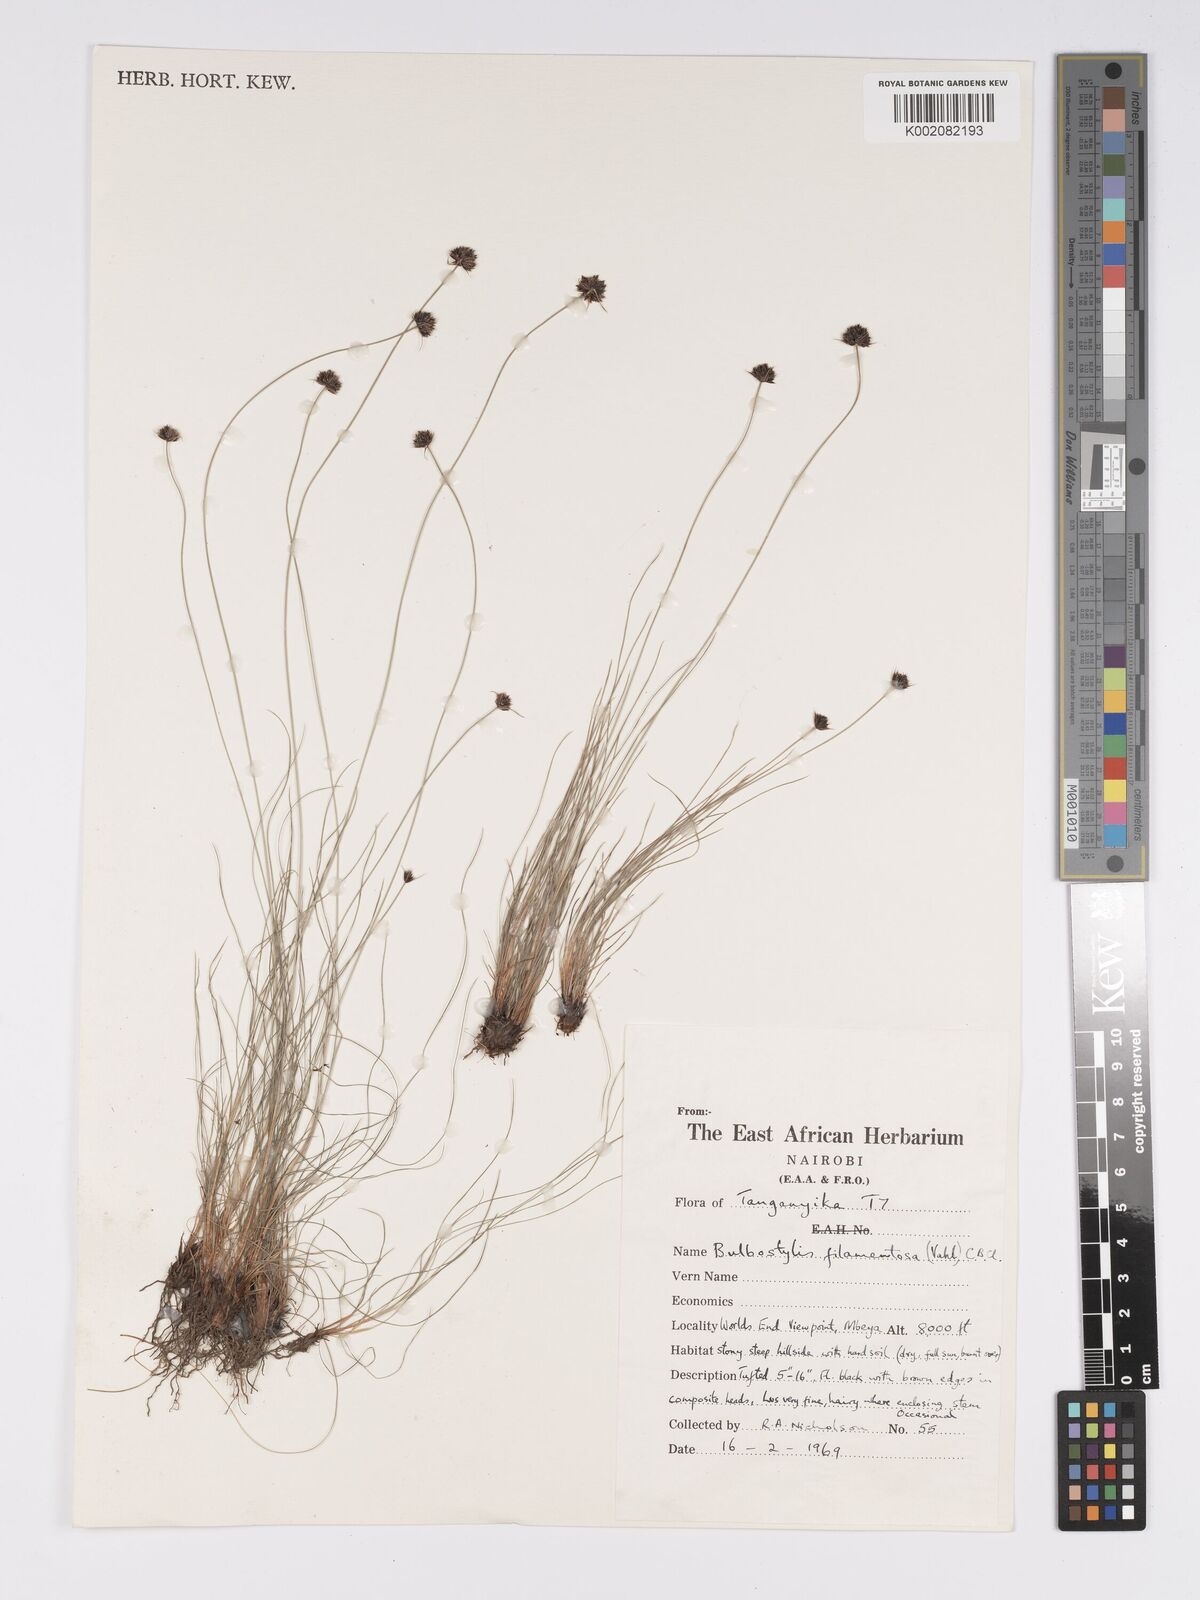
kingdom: Plantae
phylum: Tracheophyta
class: Liliopsida
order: Poales
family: Cyperaceae
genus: Bulbostylis
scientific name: Bulbostylis filamentosa
